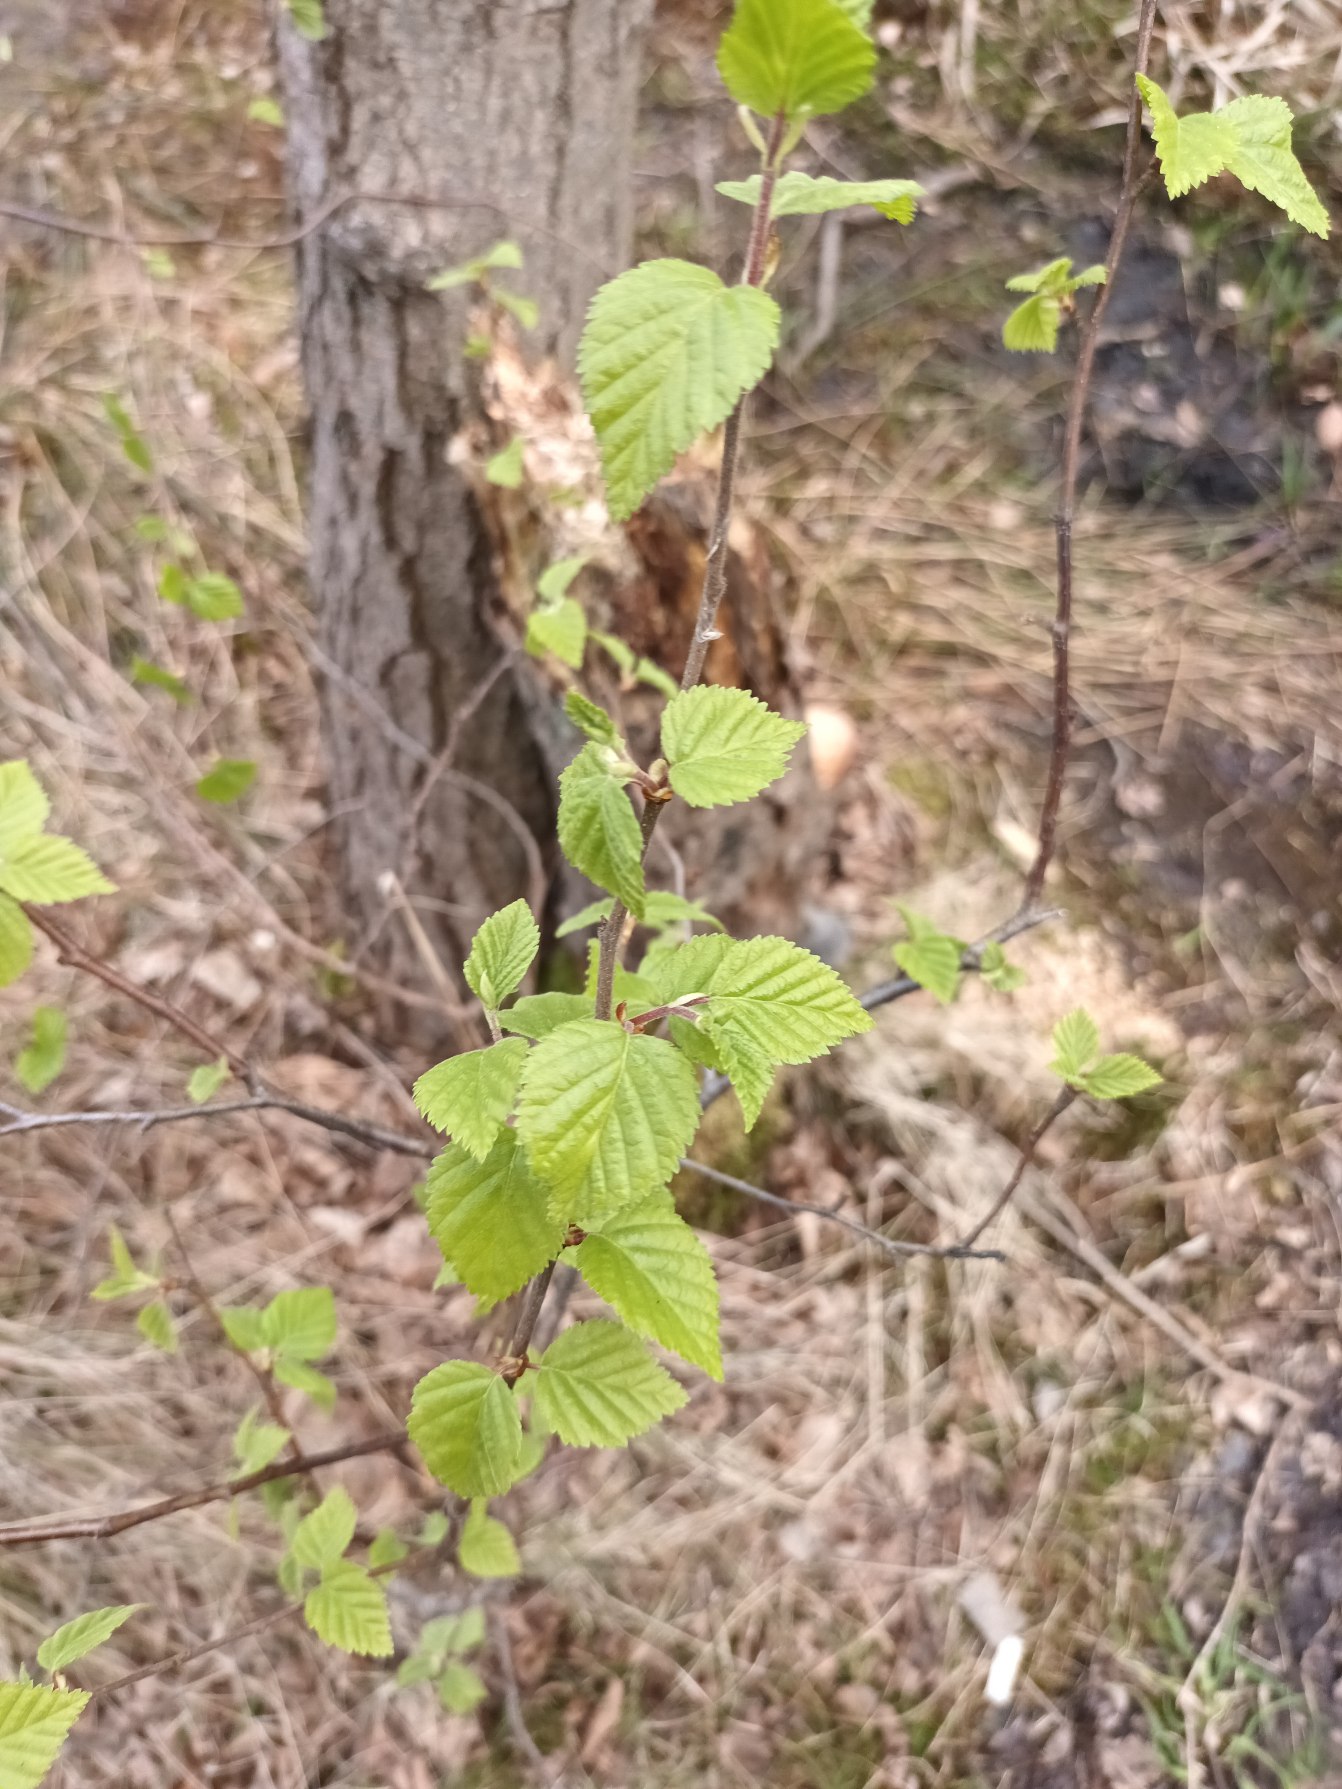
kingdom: Plantae
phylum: Tracheophyta
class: Magnoliopsida
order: Fagales
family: Betulaceae
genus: Betula
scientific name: Betula pubescens
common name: Dun-birk
